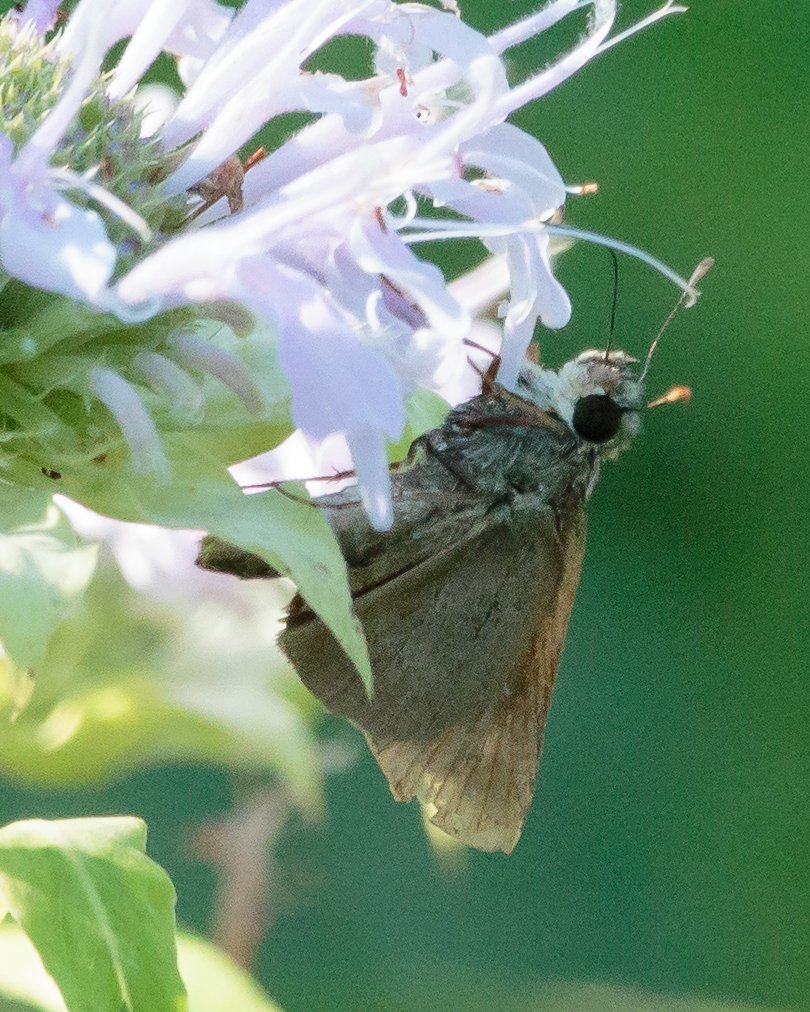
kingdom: Animalia
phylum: Arthropoda
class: Insecta
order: Lepidoptera
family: Hesperiidae
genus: Polites
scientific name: Polites themistocles
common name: Tawny-edged Skipper
